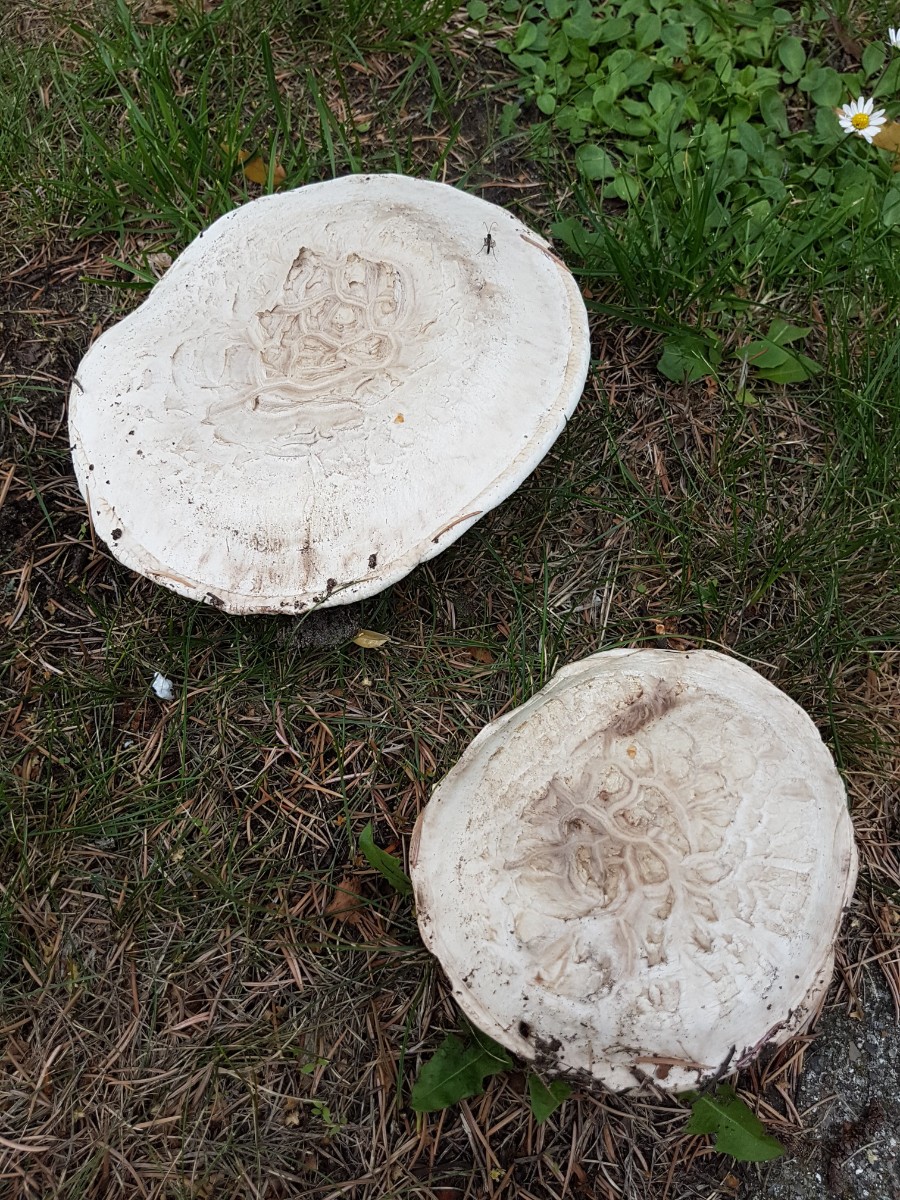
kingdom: Fungi
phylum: Basidiomycota
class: Agaricomycetes
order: Agaricales
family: Agaricaceae
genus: Agaricus
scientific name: Agaricus bernardii
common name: strandengs-champignon
